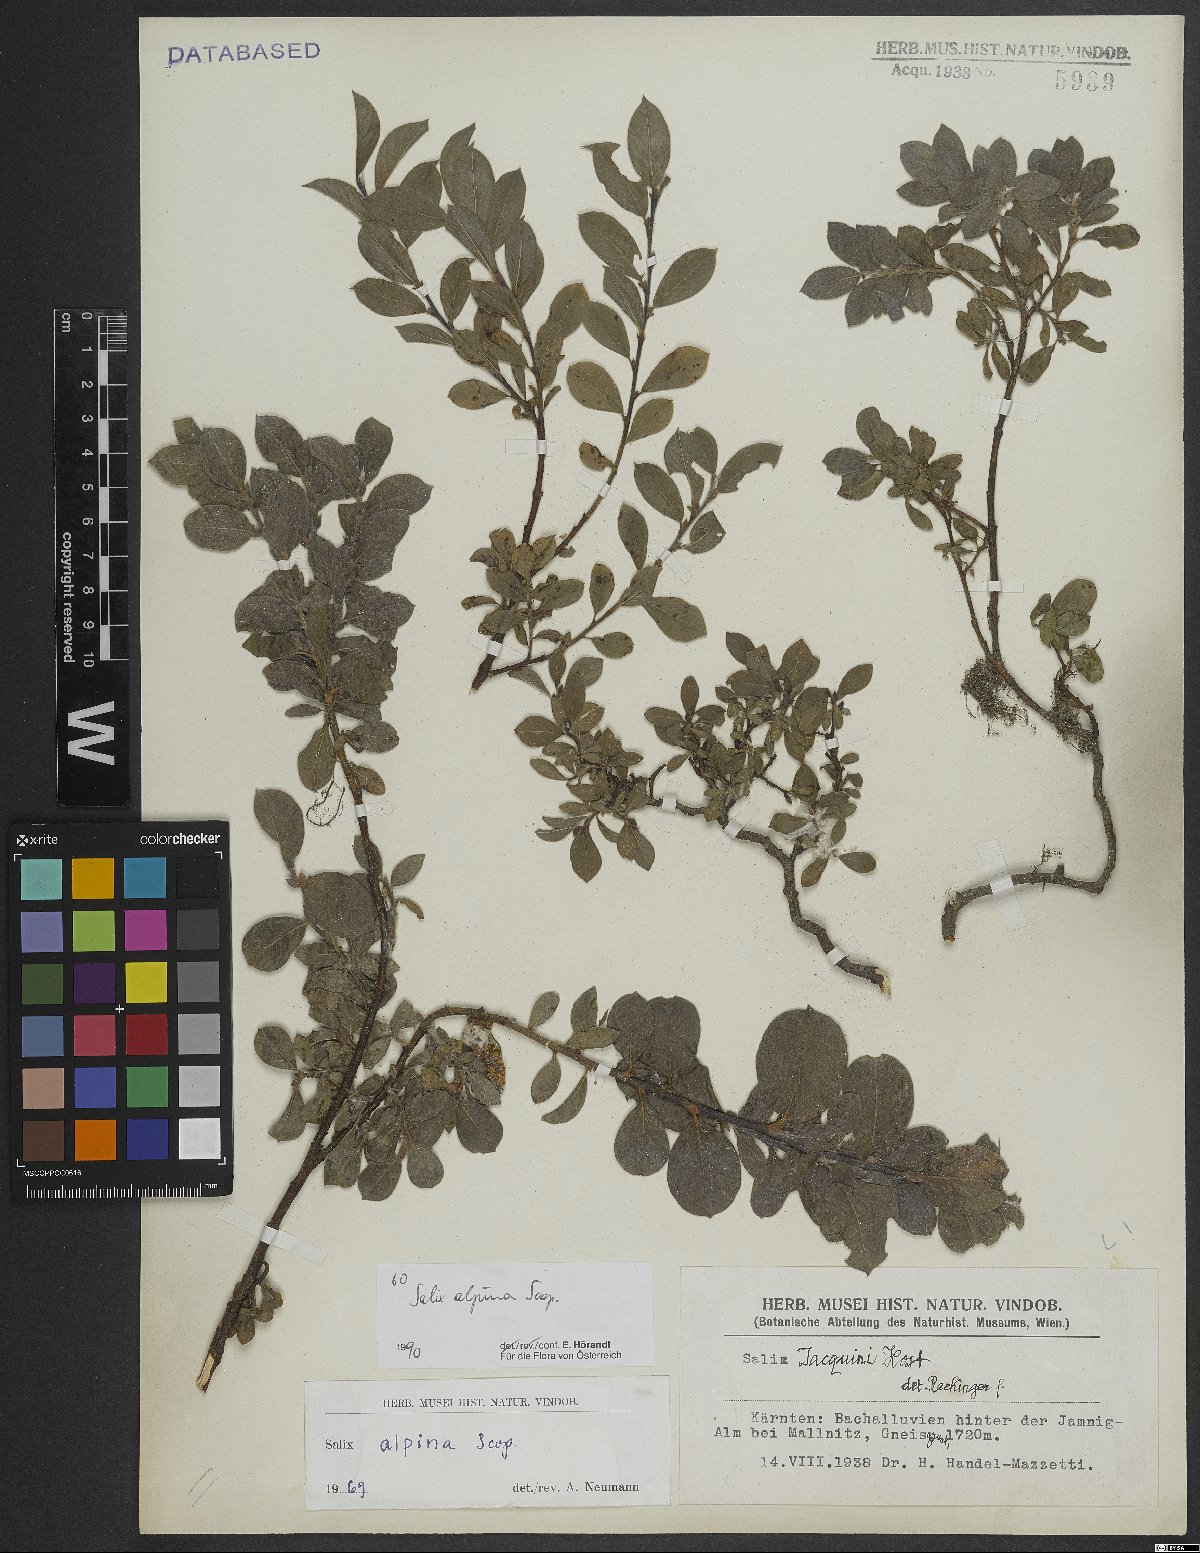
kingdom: Plantae
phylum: Tracheophyta
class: Magnoliopsida
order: Malpighiales
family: Salicaceae
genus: Salix
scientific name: Salix alpina
